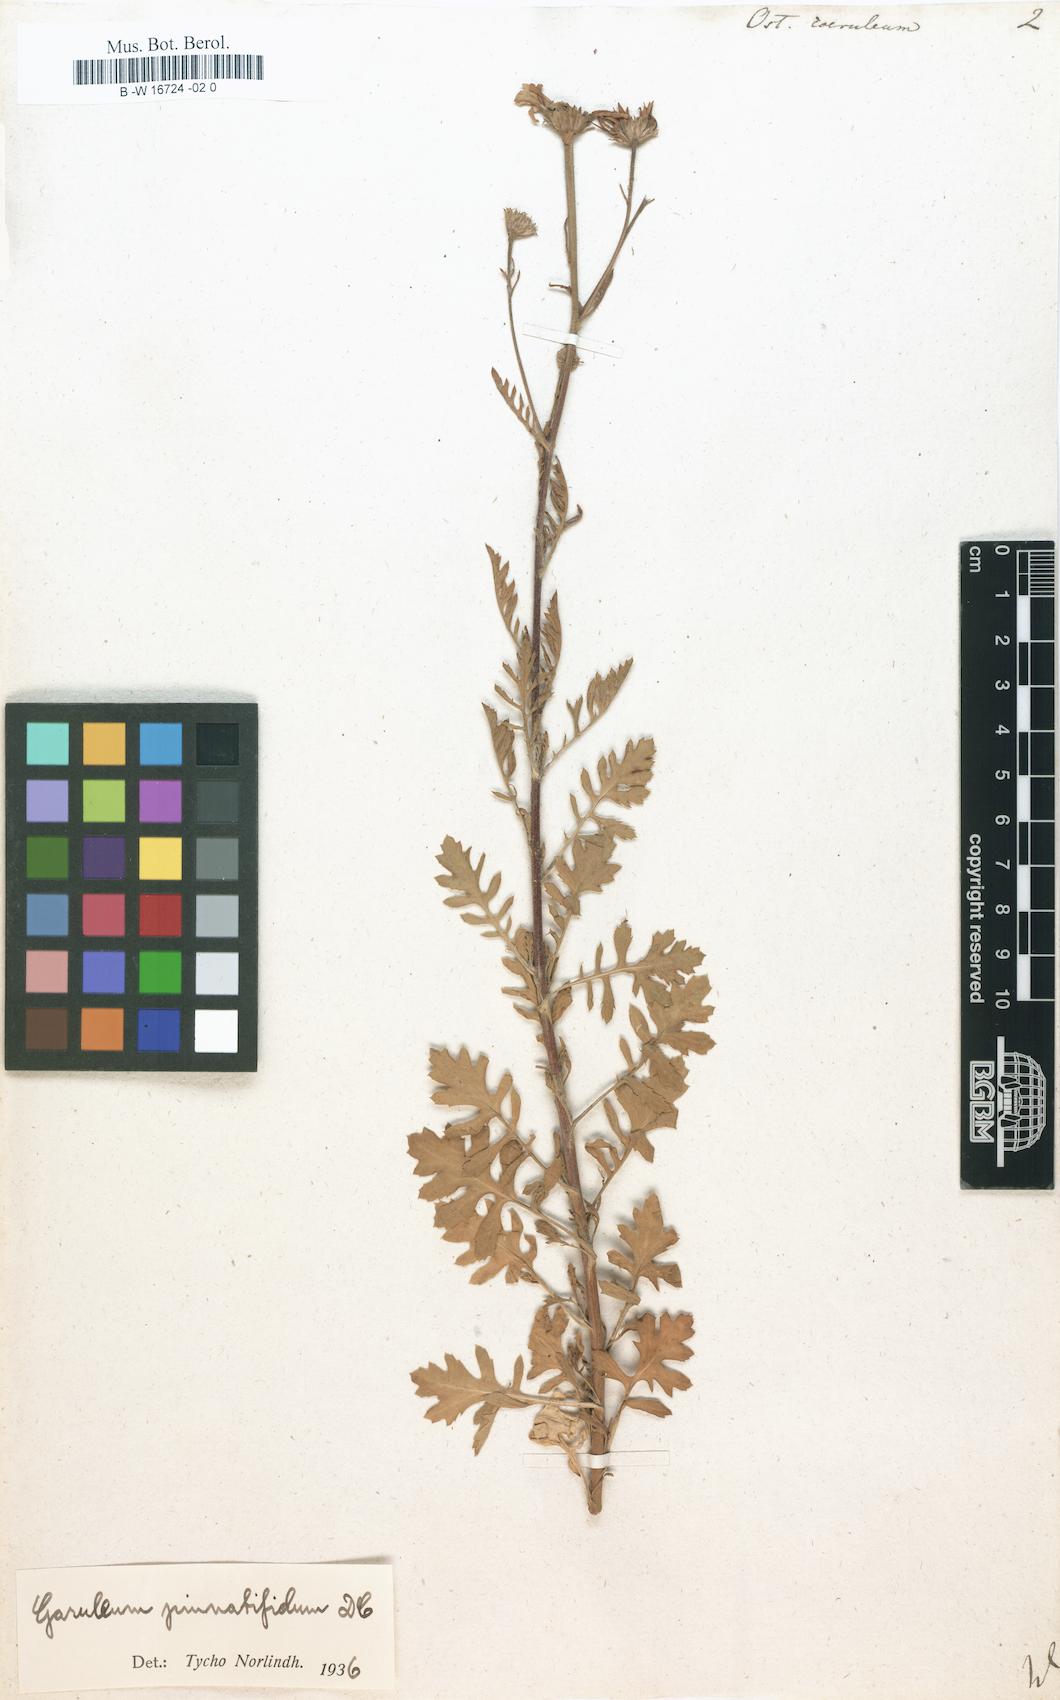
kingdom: Plantae
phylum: Tracheophyta
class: Magnoliopsida
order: Asterales
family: Asteraceae
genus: Osteospermum
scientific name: Osteospermum coeruleum
